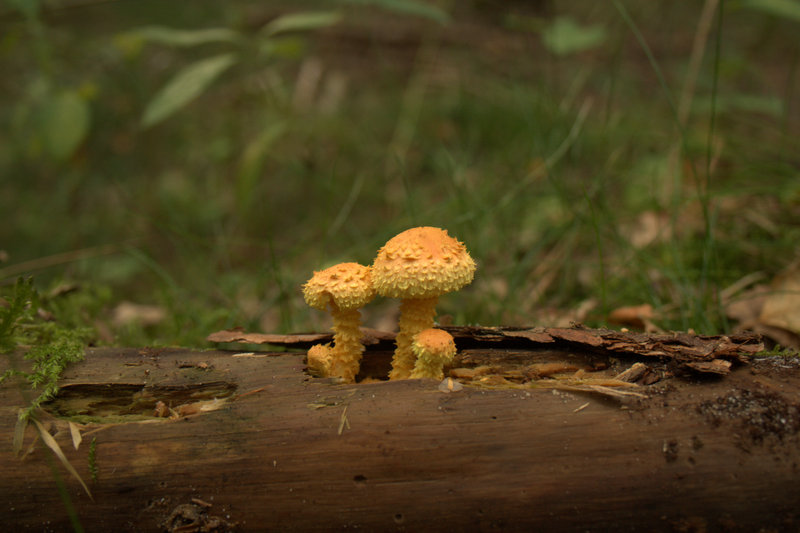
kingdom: Fungi
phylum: Basidiomycota
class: Agaricomycetes
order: Agaricales
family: Strophariaceae
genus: Pholiota
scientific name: Pholiota flammans
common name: flamme-skælhat
